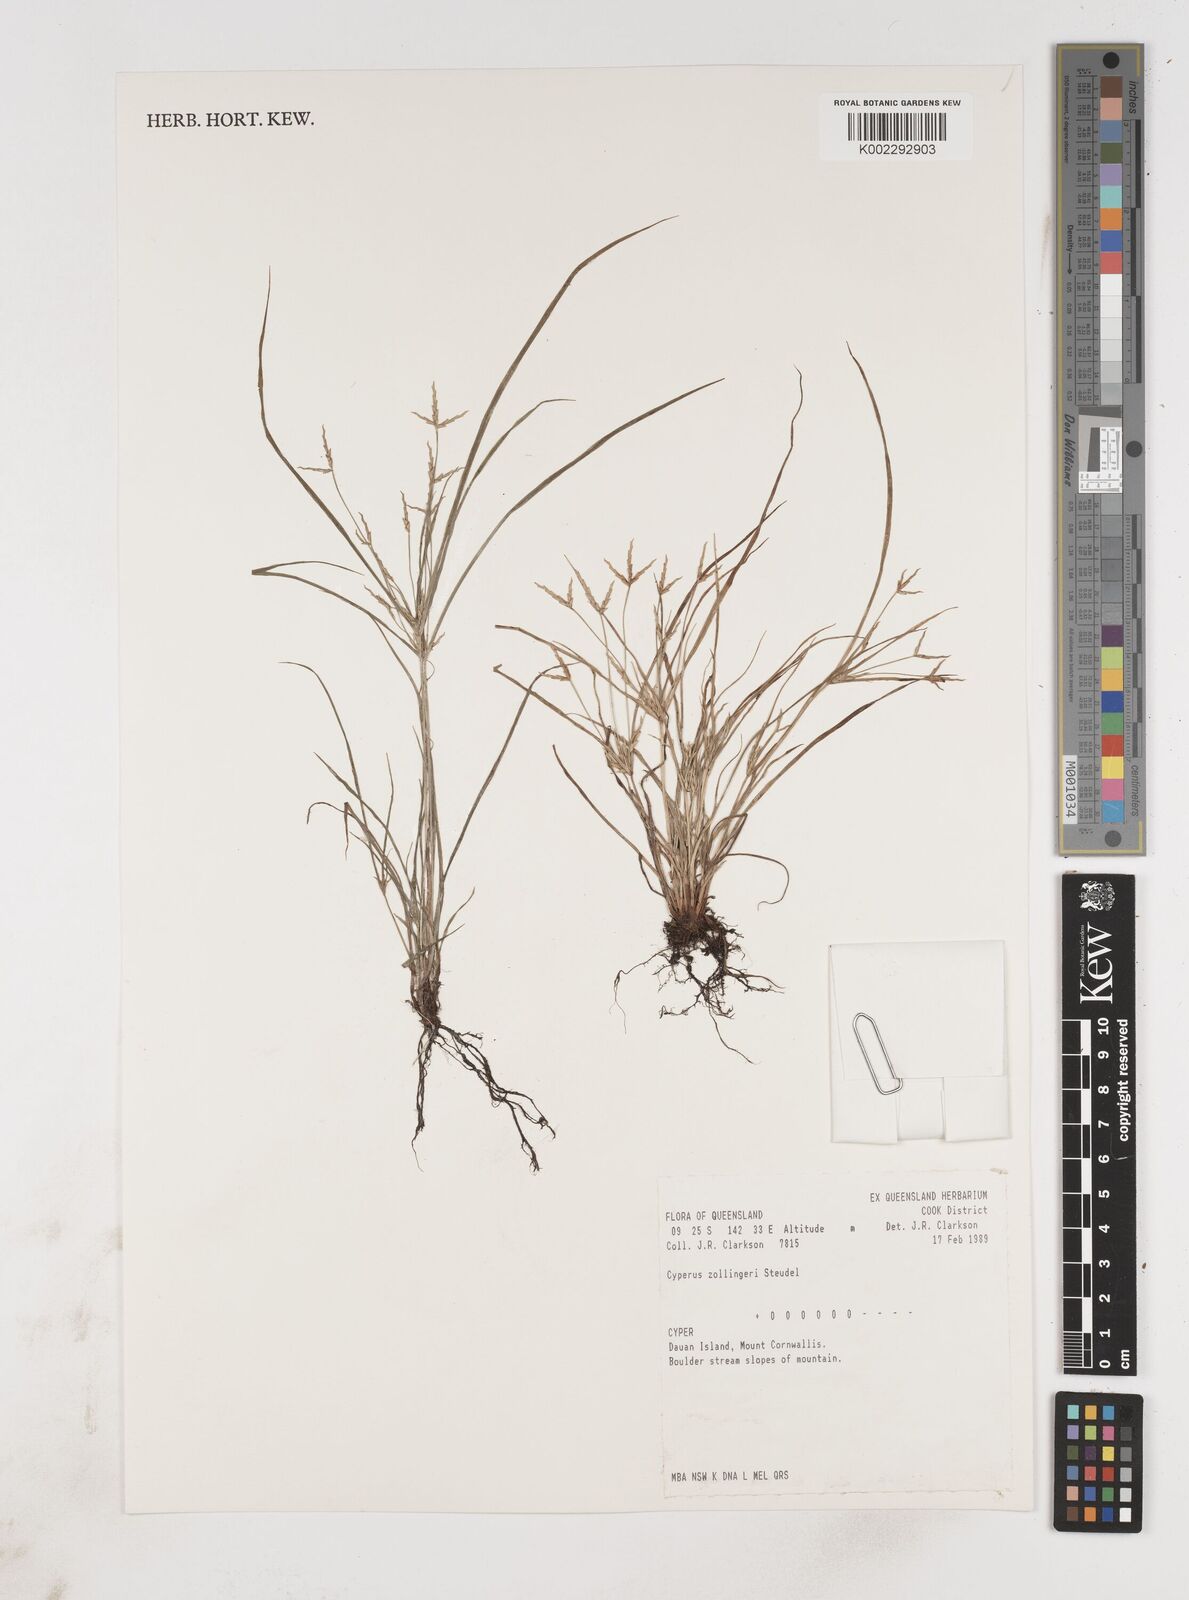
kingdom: Plantae
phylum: Tracheophyta
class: Liliopsida
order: Poales
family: Cyperaceae
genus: Cyperus
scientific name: Cyperus zollingeri
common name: Roadside flatsedge
